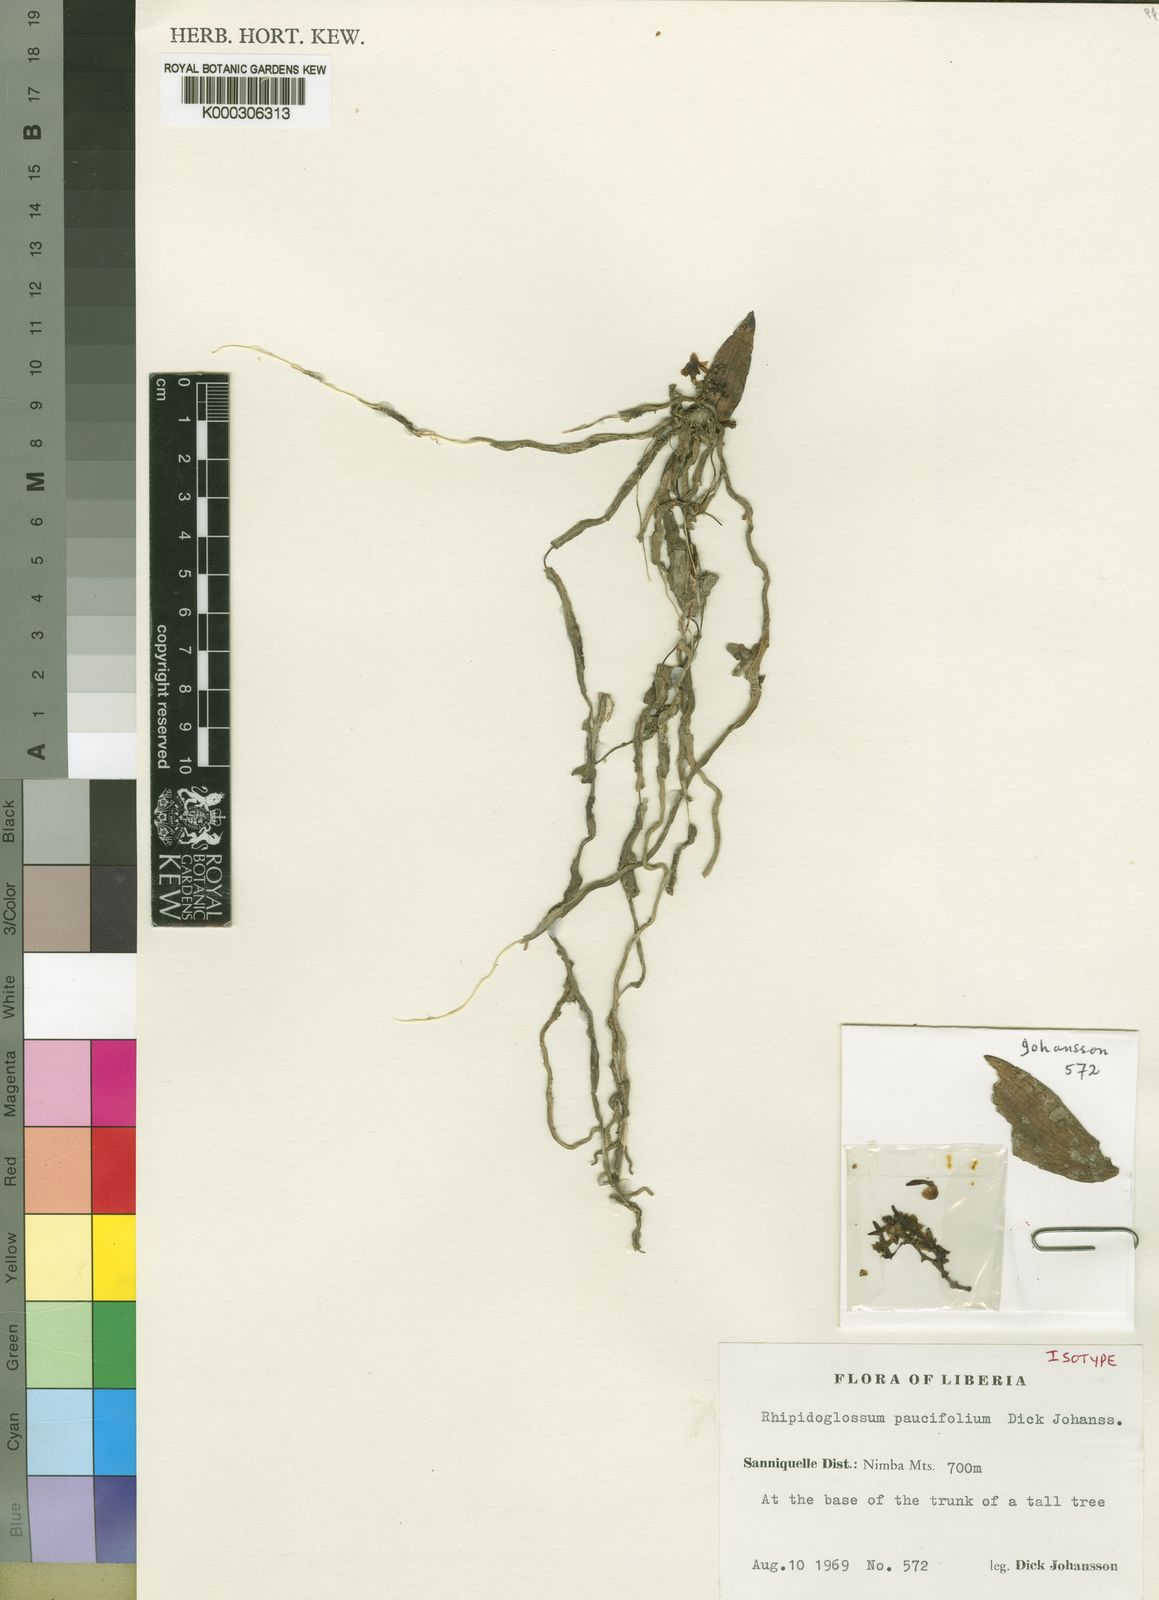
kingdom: Plantae
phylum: Tracheophyta
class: Liliopsida
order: Asparagales
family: Orchidaceae
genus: Rhipidoglossum
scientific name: Rhipidoglossum paucifolium
